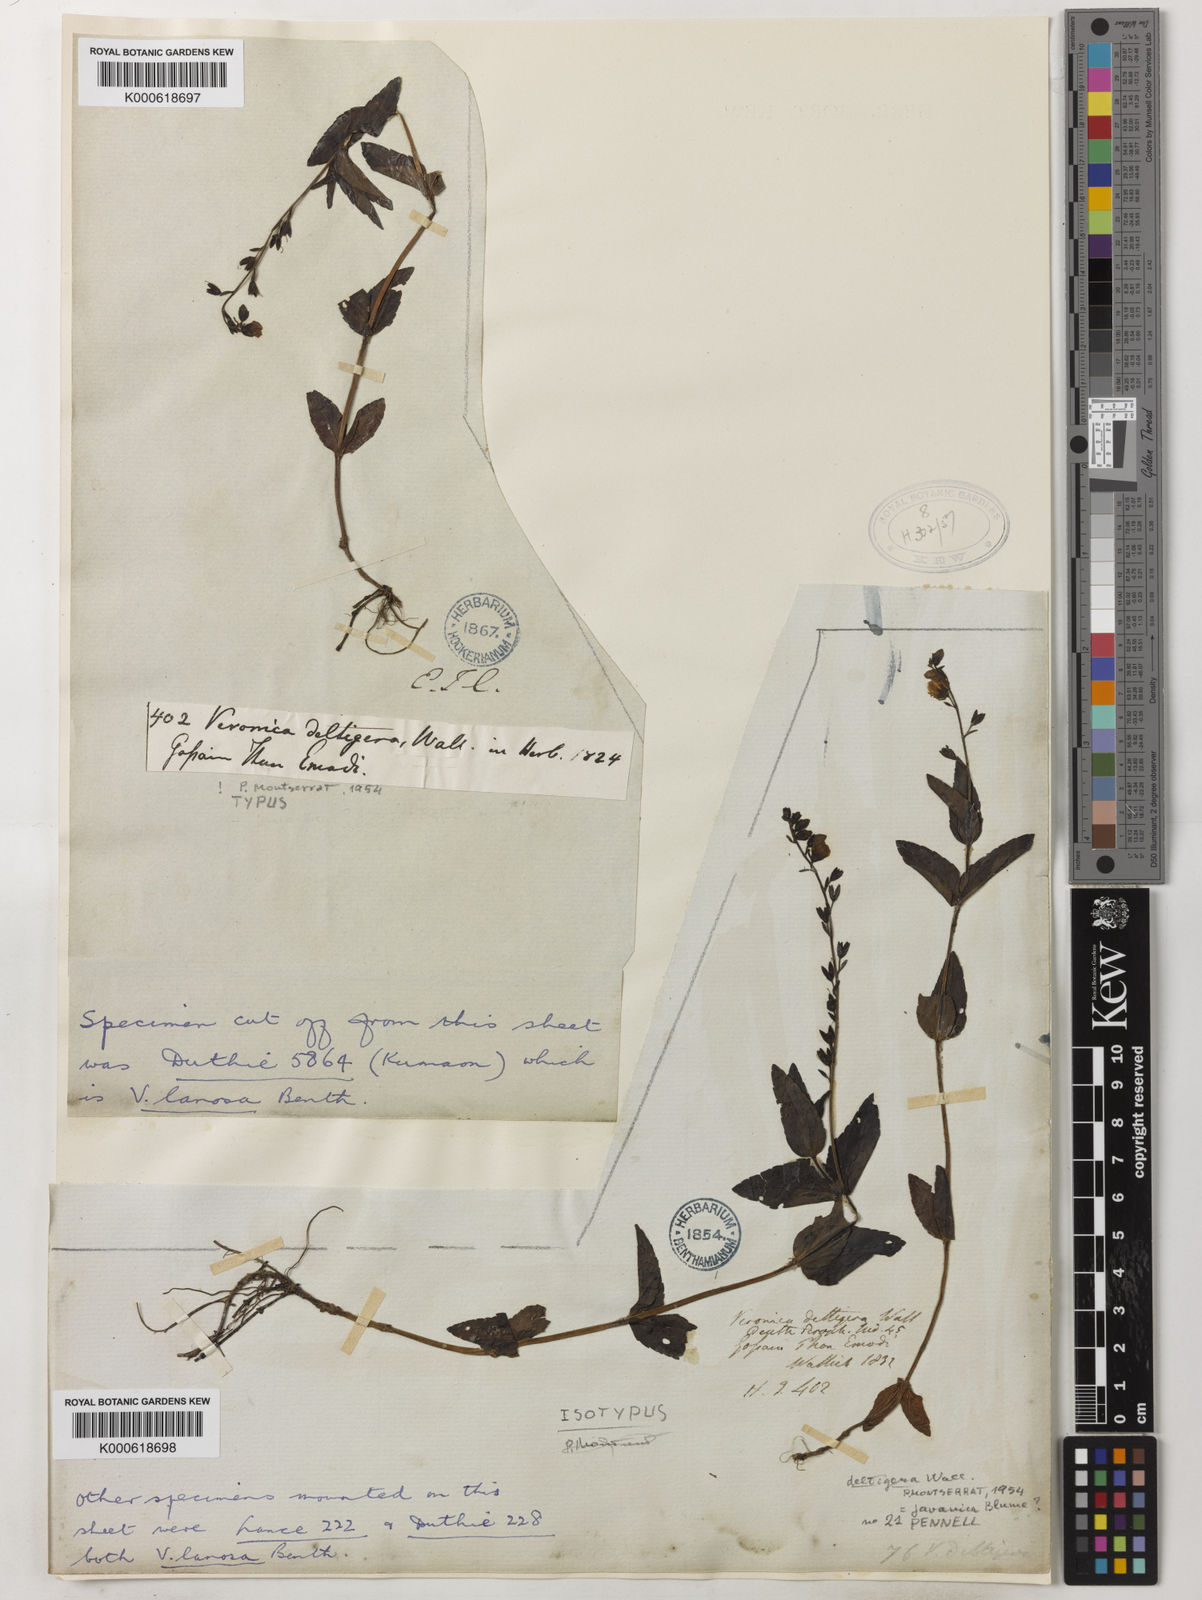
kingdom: Plantae
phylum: Tracheophyta
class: Magnoliopsida
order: Lamiales
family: Plantaginaceae
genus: Veronica
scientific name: Veronica
